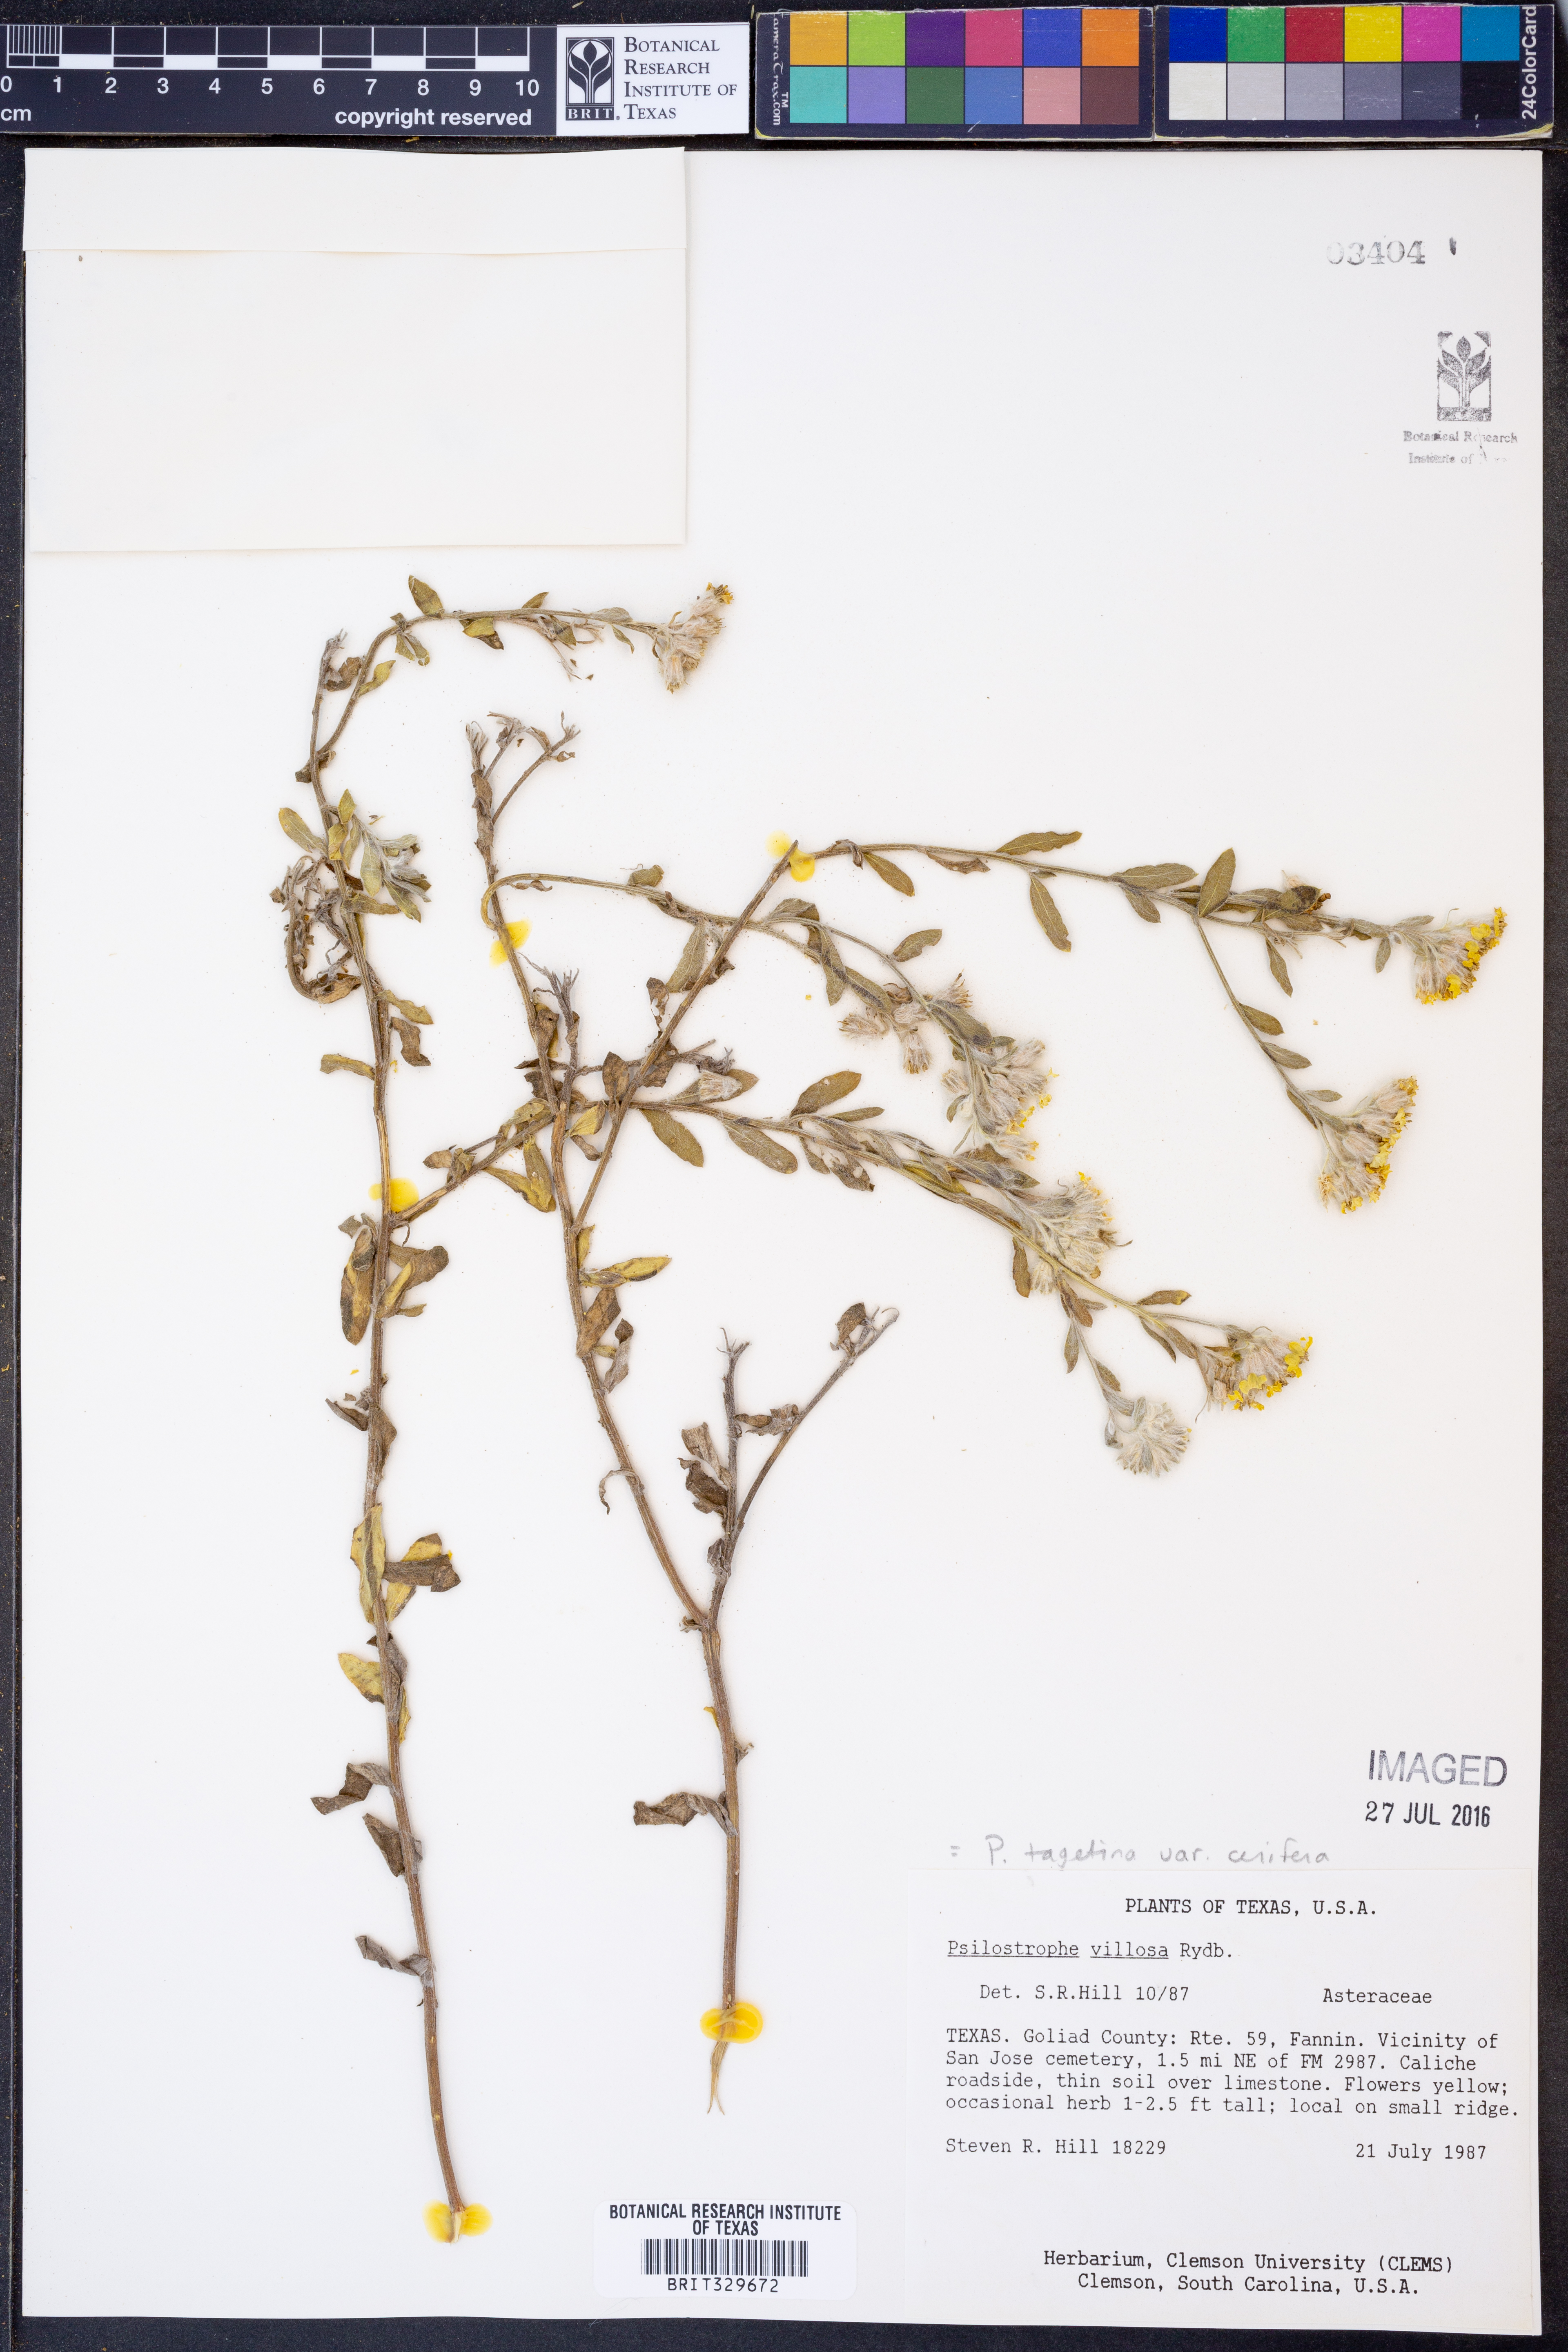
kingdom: Plantae
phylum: Tracheophyta
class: Magnoliopsida
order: Asterales
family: Asteraceae
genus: Psilostrophe
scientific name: Psilostrophe villosa
